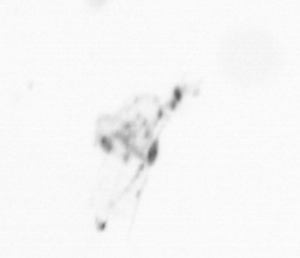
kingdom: Chromista
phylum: Ochrophyta
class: Bacillariophyceae
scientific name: Bacillariophyceae
